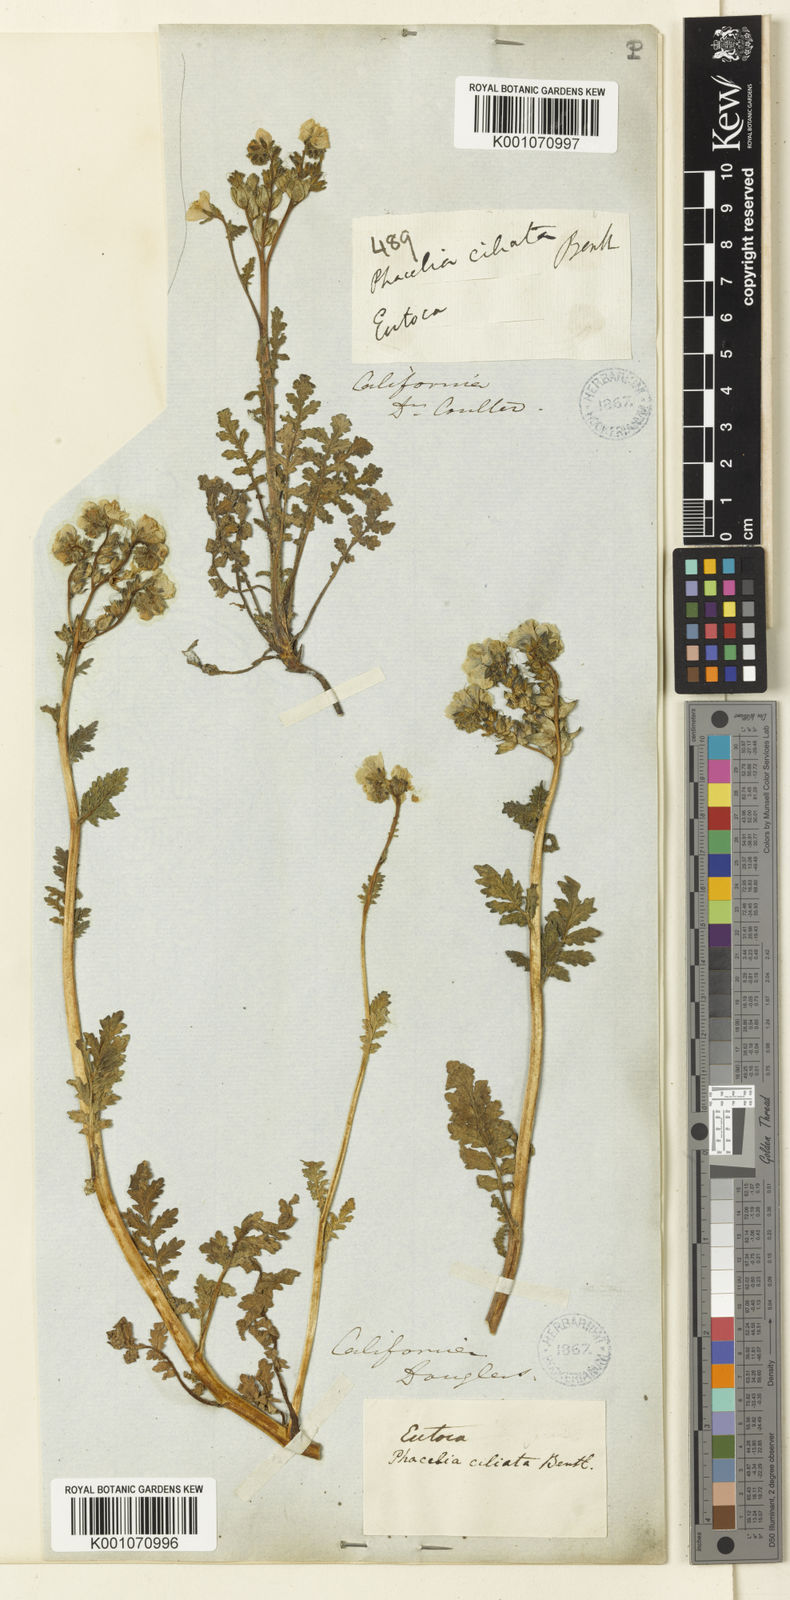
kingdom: Plantae
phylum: Tracheophyta
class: Magnoliopsida
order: Boraginales
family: Hydrophyllaceae
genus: Phacelia
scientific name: Phacelia ciliata
